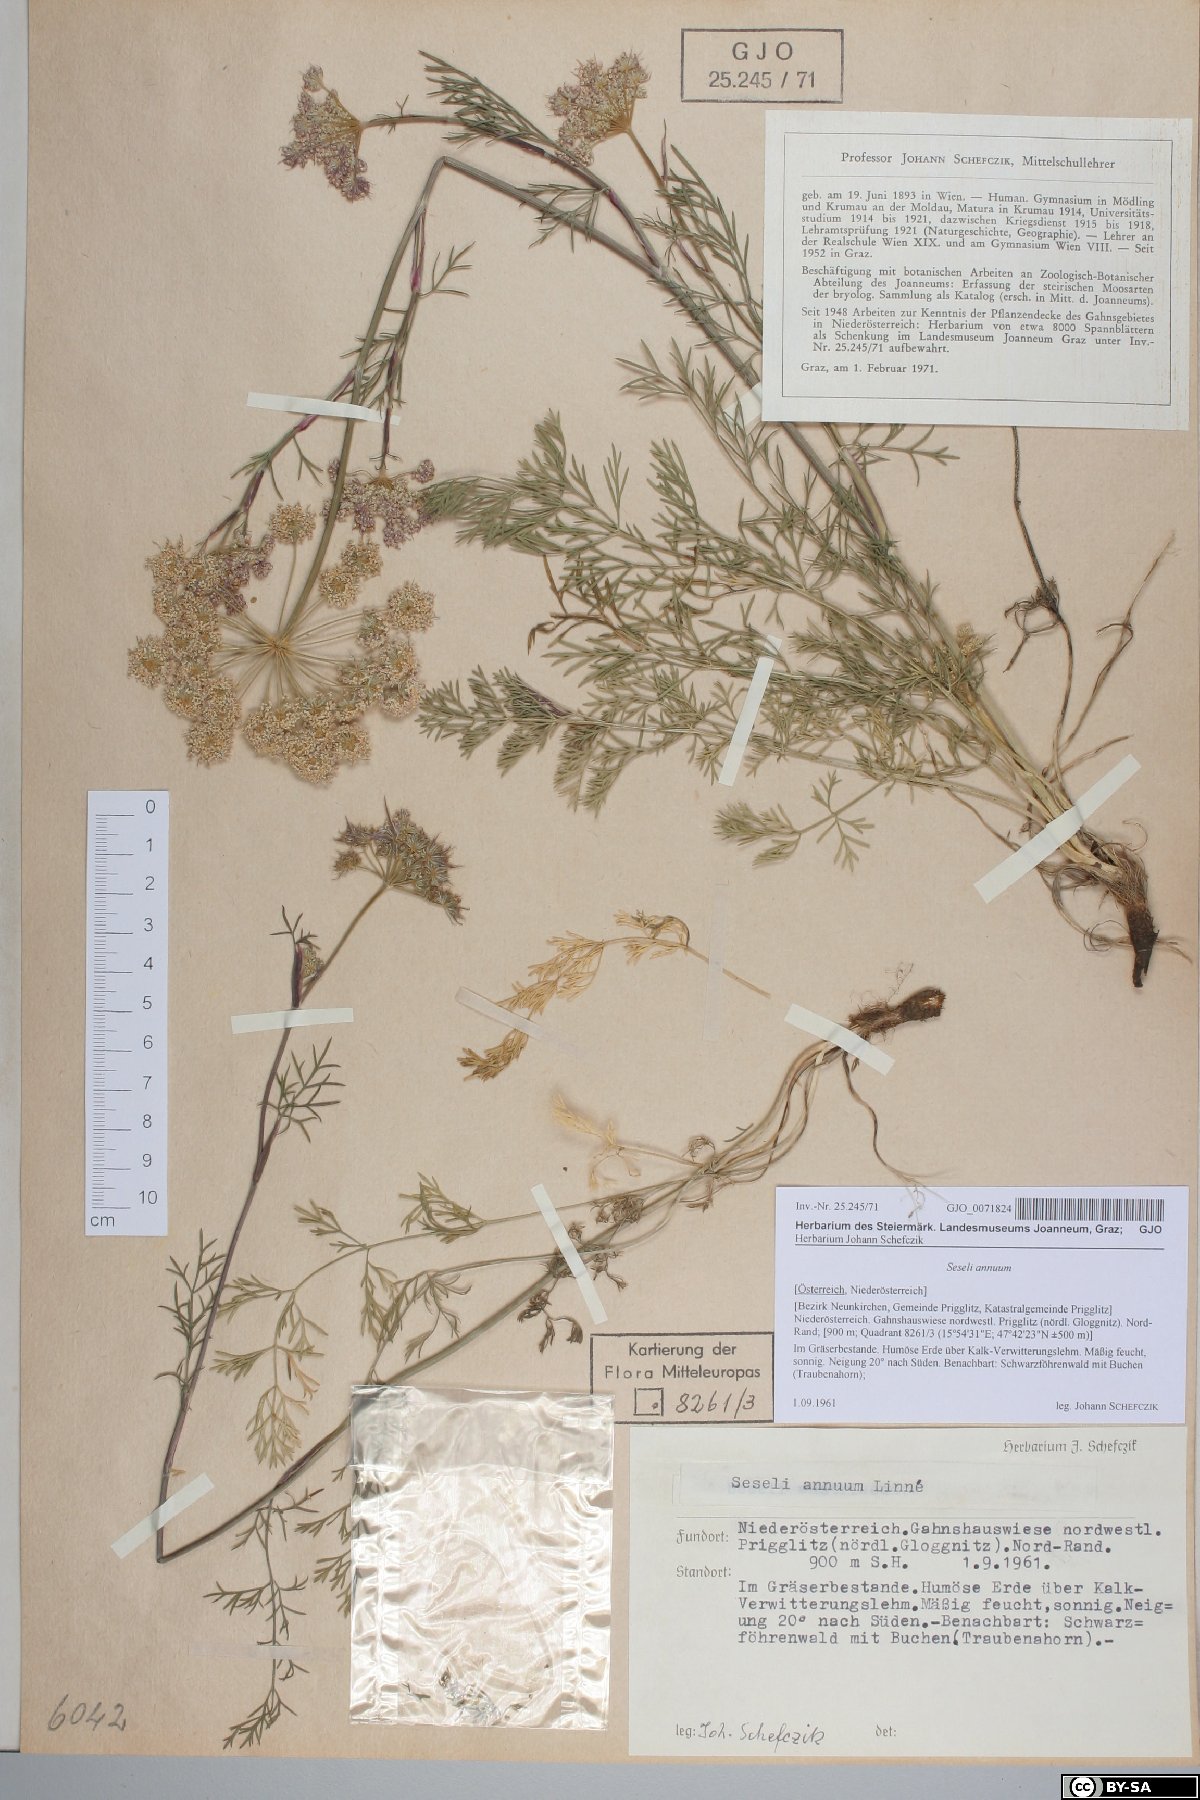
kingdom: Plantae
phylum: Tracheophyta
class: Magnoliopsida
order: Apiales
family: Apiaceae
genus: Seseli
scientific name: Seseli annuum
